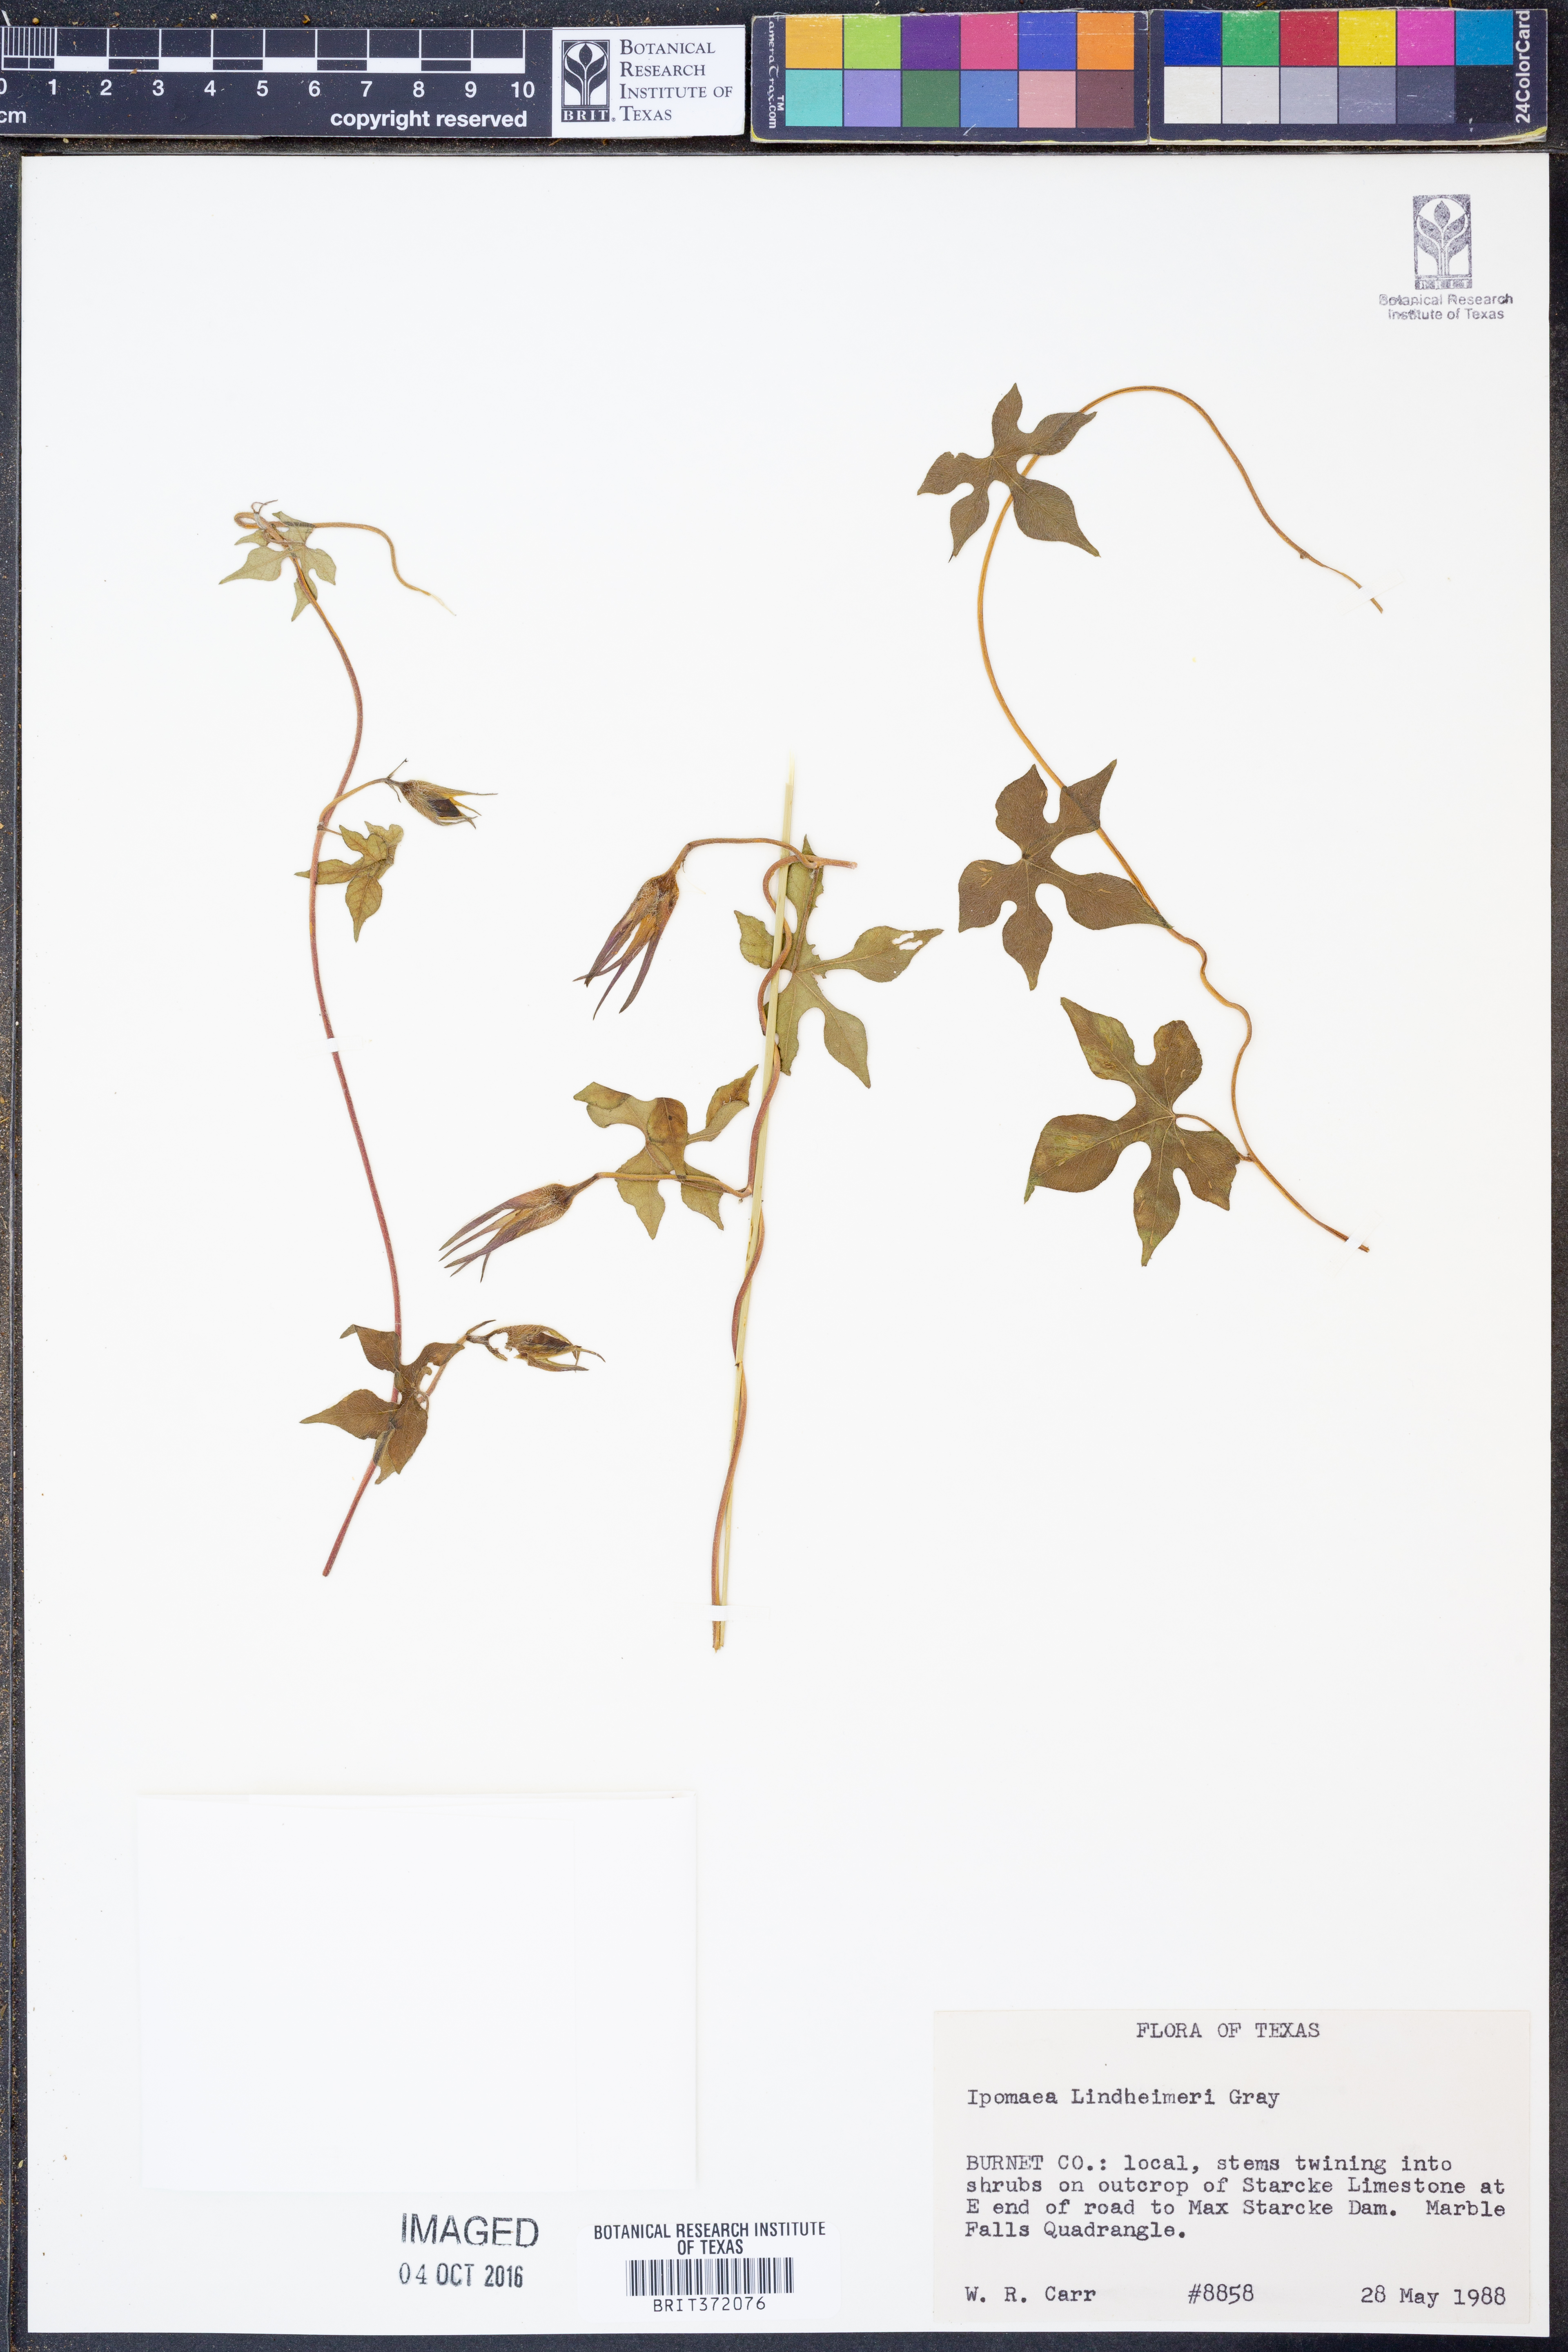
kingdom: Plantae
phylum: Tracheophyta
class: Magnoliopsida
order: Solanales
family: Convolvulaceae
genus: Ipomoea
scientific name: Ipomoea lindheimeri
